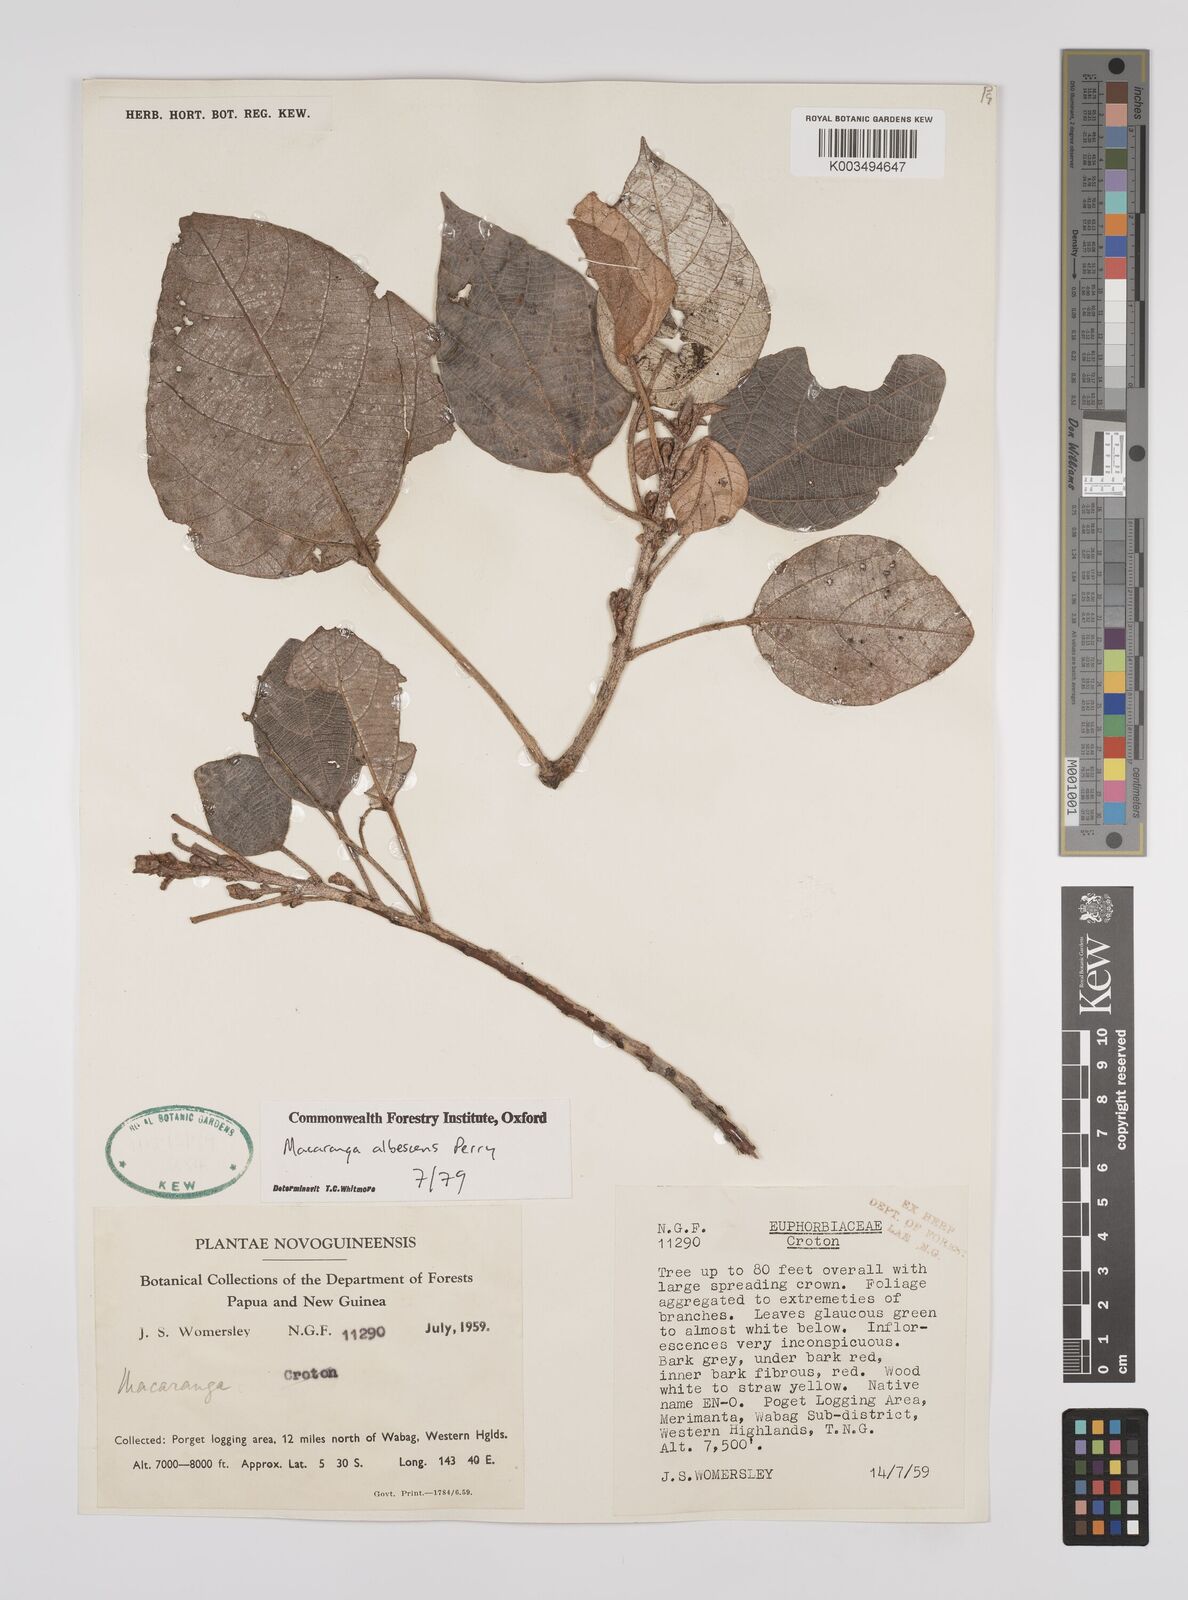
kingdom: Plantae
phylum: Tracheophyta
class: Magnoliopsida
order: Malpighiales
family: Euphorbiaceae
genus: Macaranga
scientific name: Macaranga albescens
